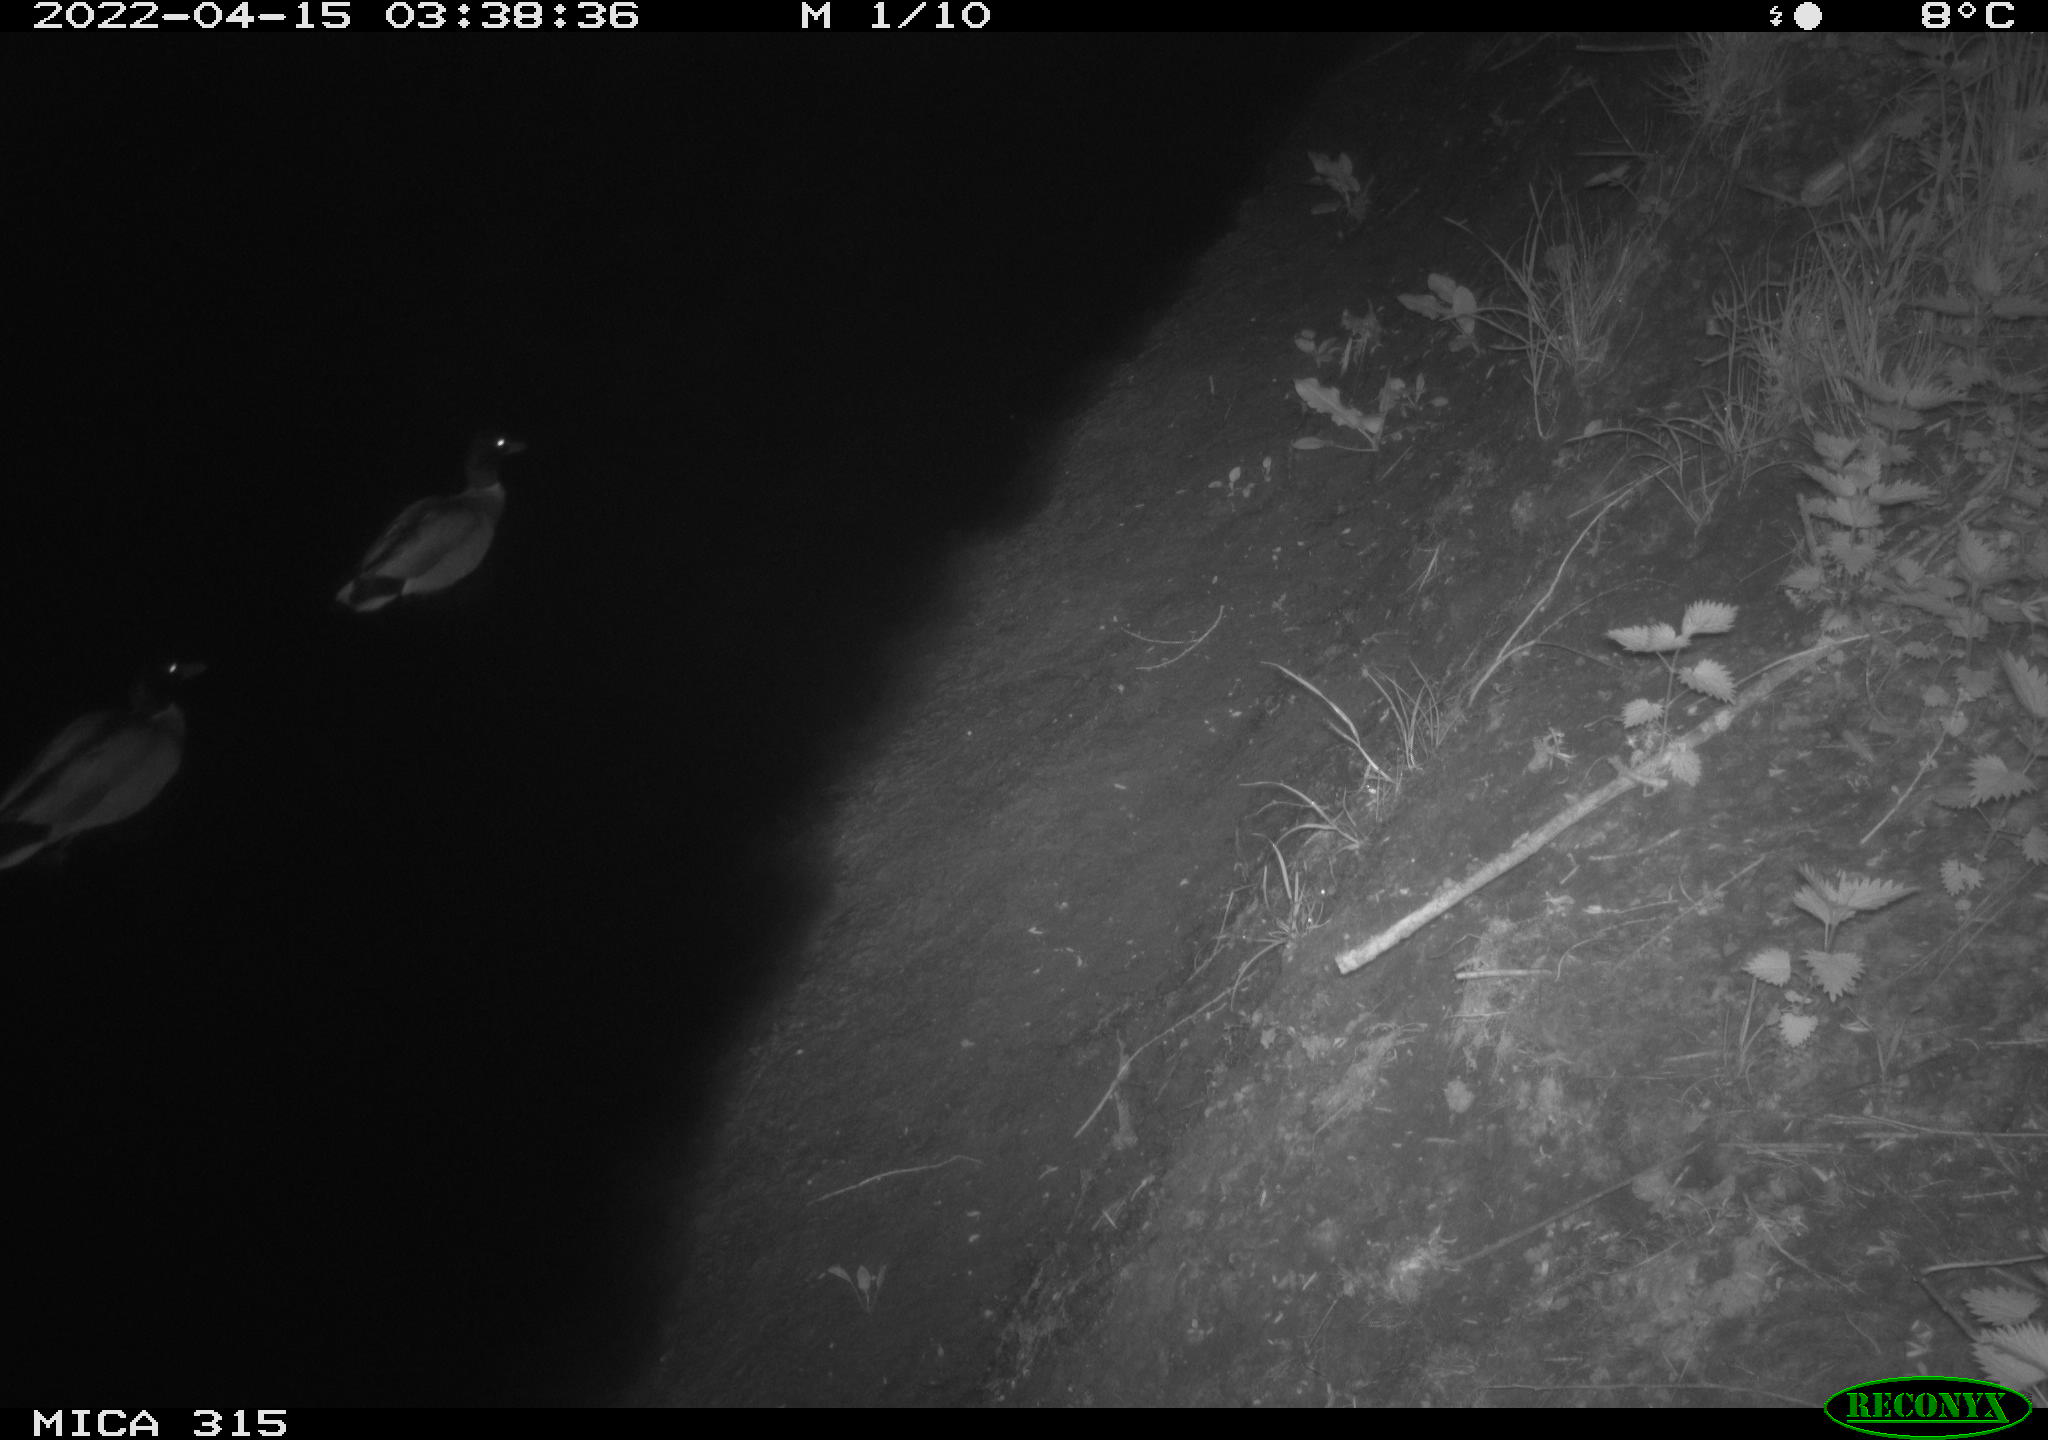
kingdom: Animalia
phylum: Chordata
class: Aves
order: Anseriformes
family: Anatidae
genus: Anas
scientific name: Anas platyrhynchos
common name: Mallard
